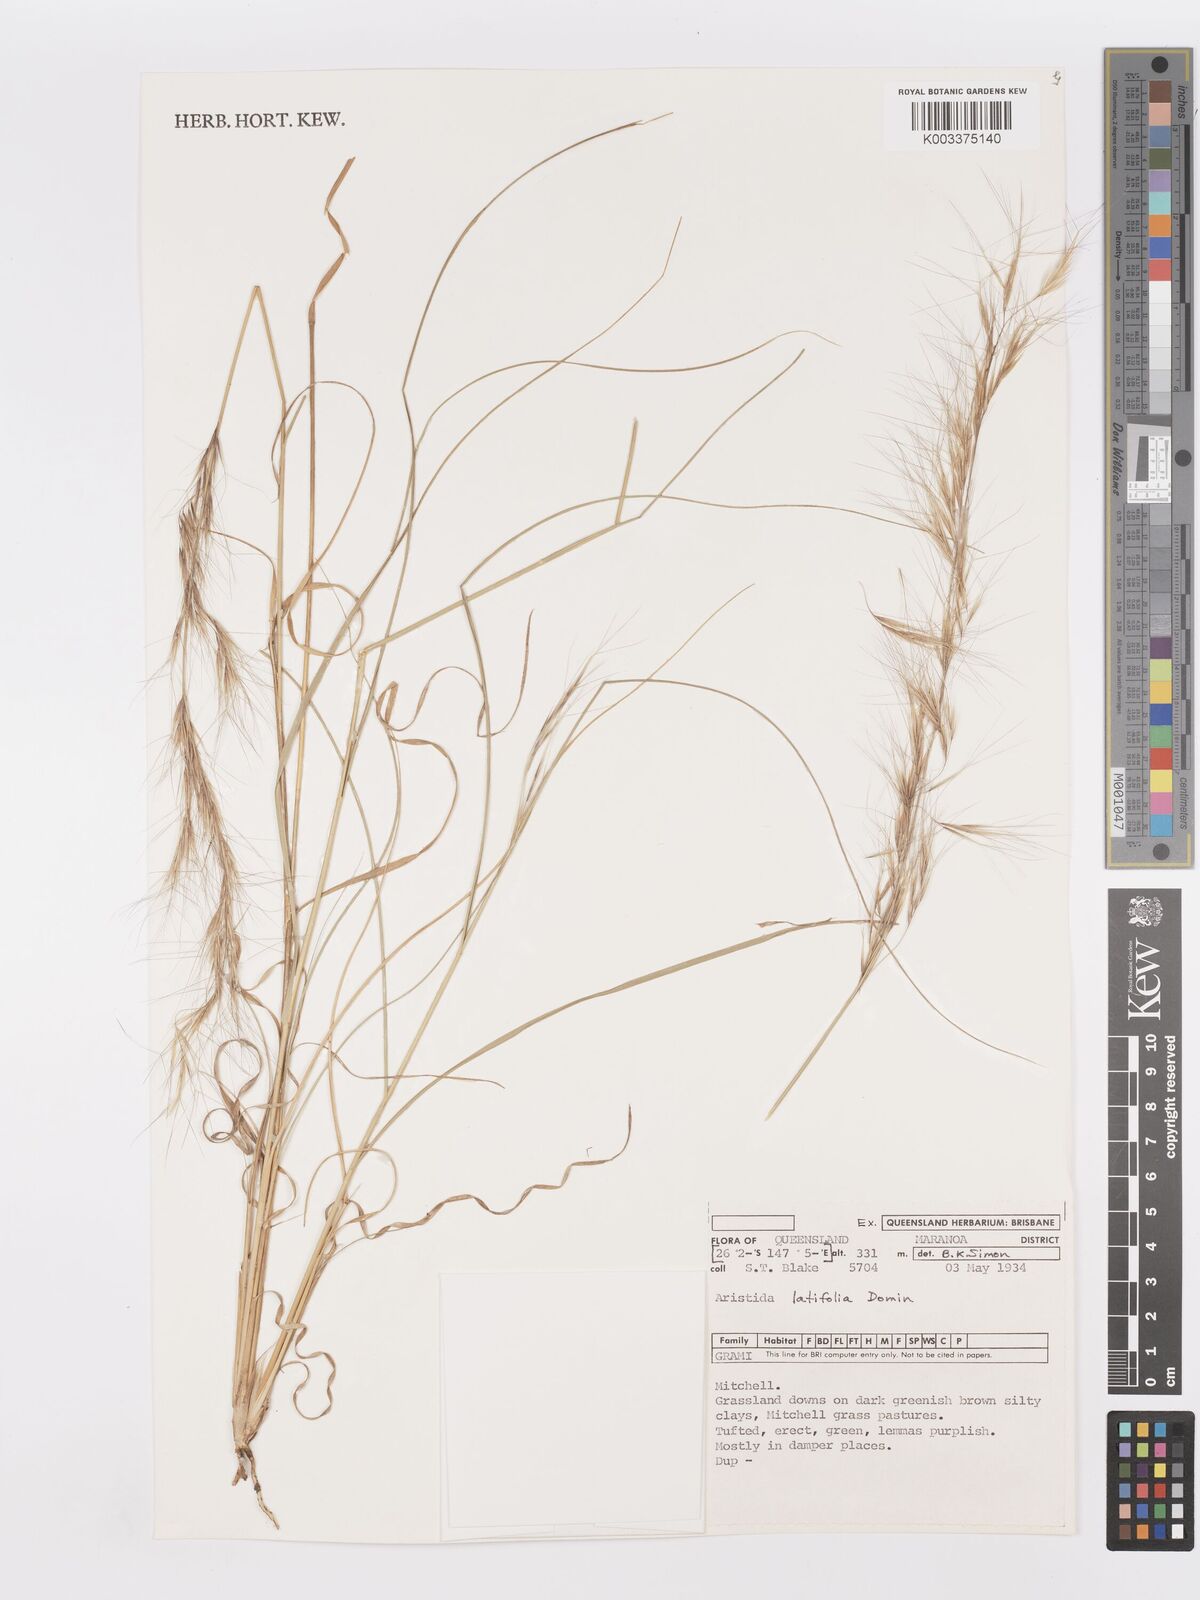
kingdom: Plantae
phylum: Tracheophyta
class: Liliopsida
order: Poales
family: Poaceae
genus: Aristida
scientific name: Aristida latifolia
